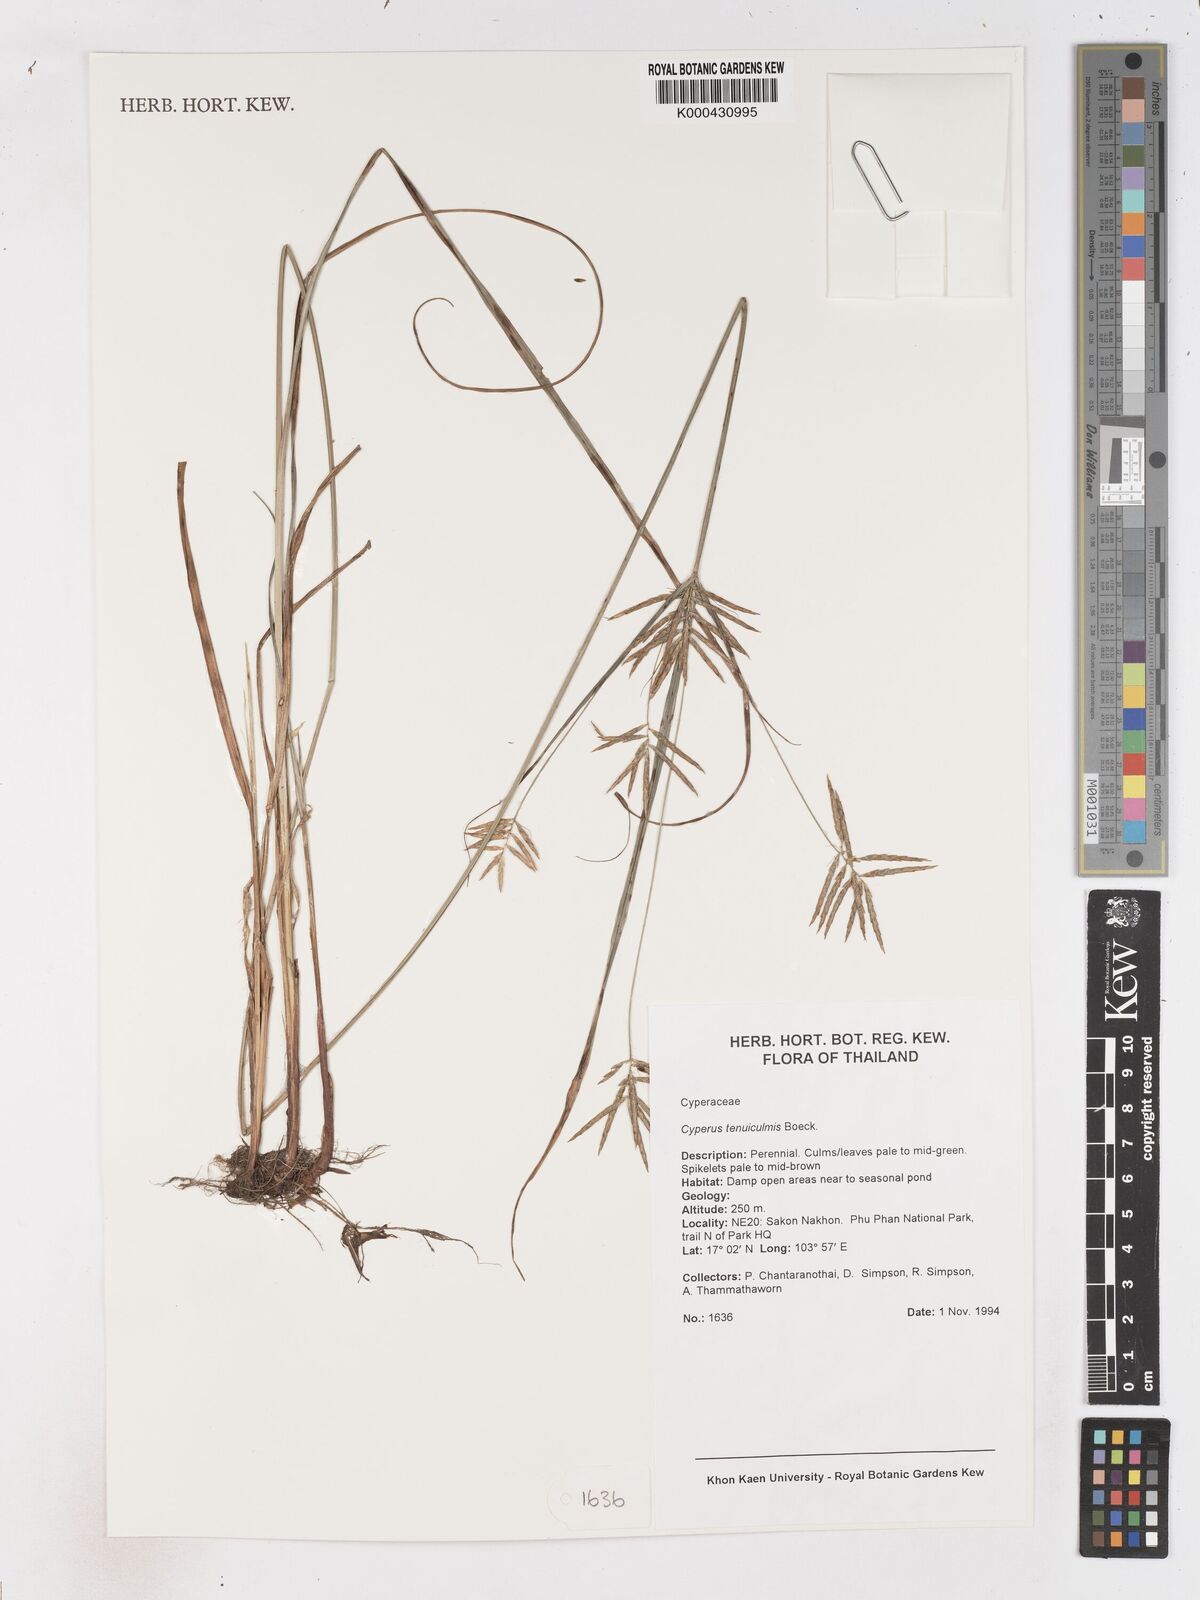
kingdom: Plantae
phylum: Tracheophyta
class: Liliopsida
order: Poales
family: Cyperaceae
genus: Cyperus
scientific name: Cyperus tenuiculmis
